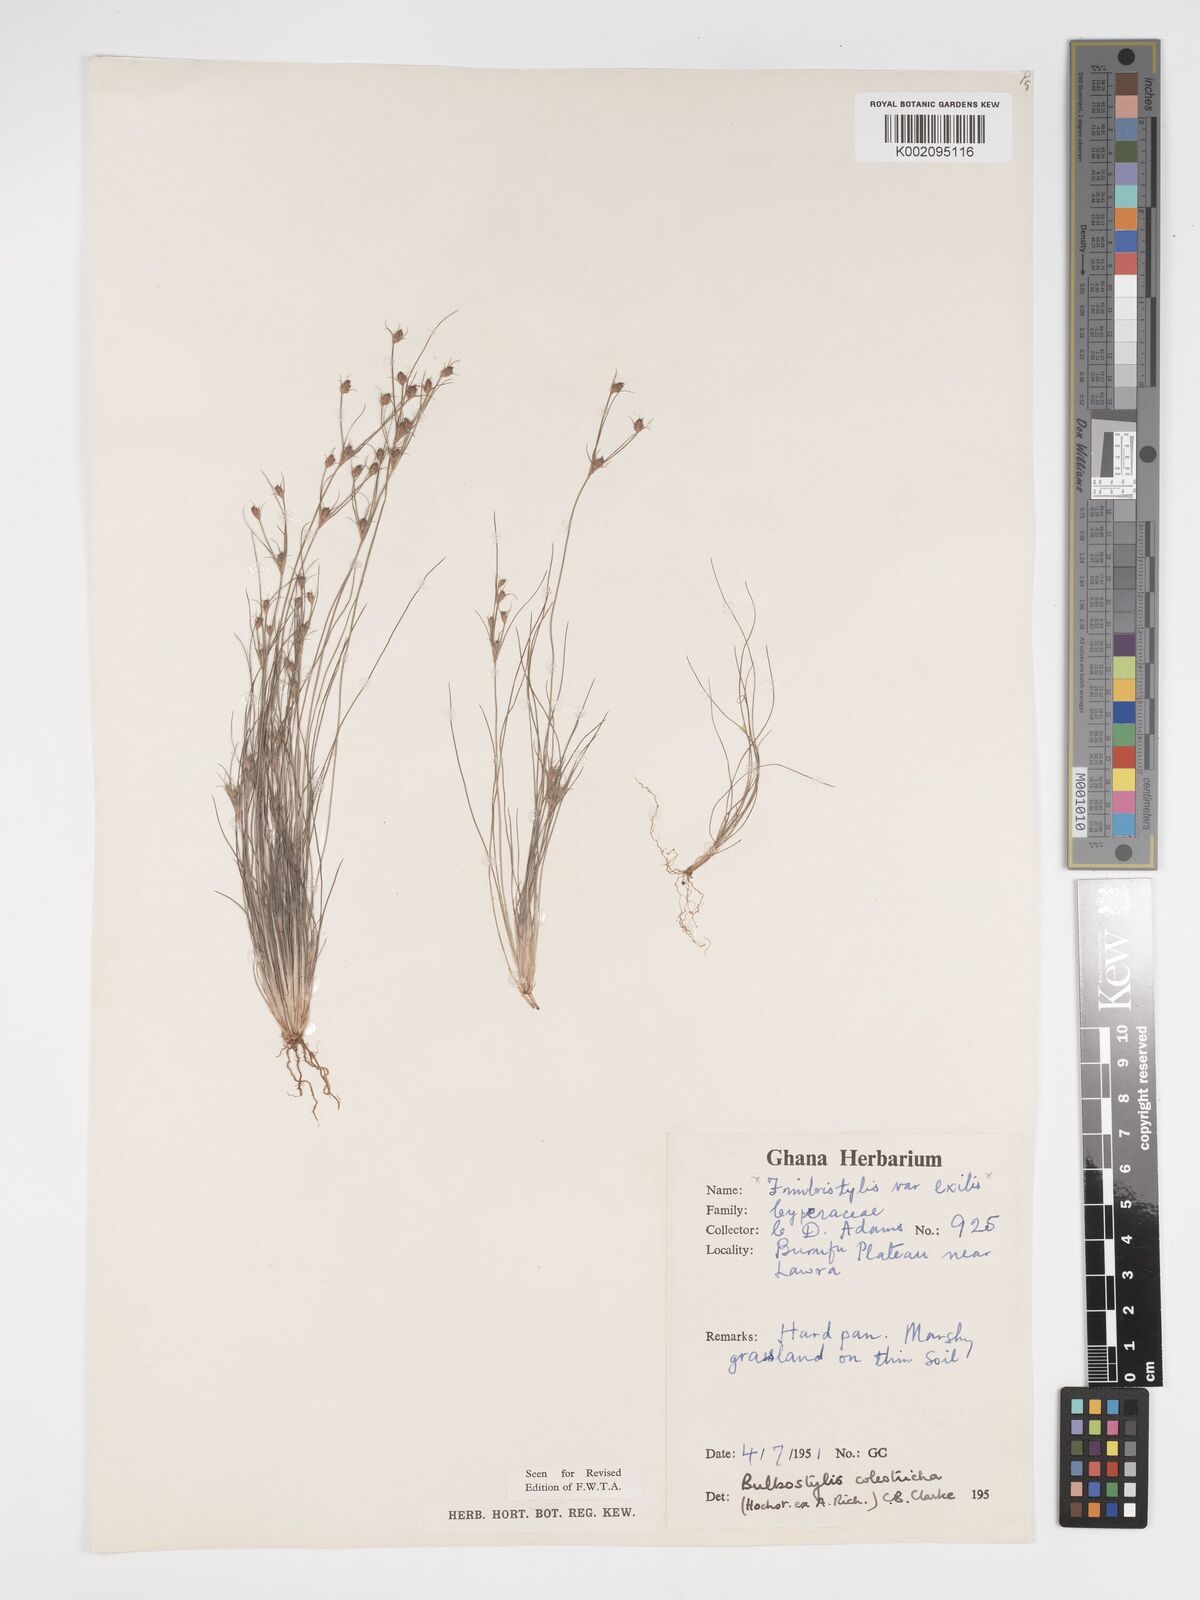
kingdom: Plantae
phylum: Tracheophyta
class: Liliopsida
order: Poales
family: Cyperaceae
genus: Bulbostylis
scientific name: Bulbostylis coleotricha
